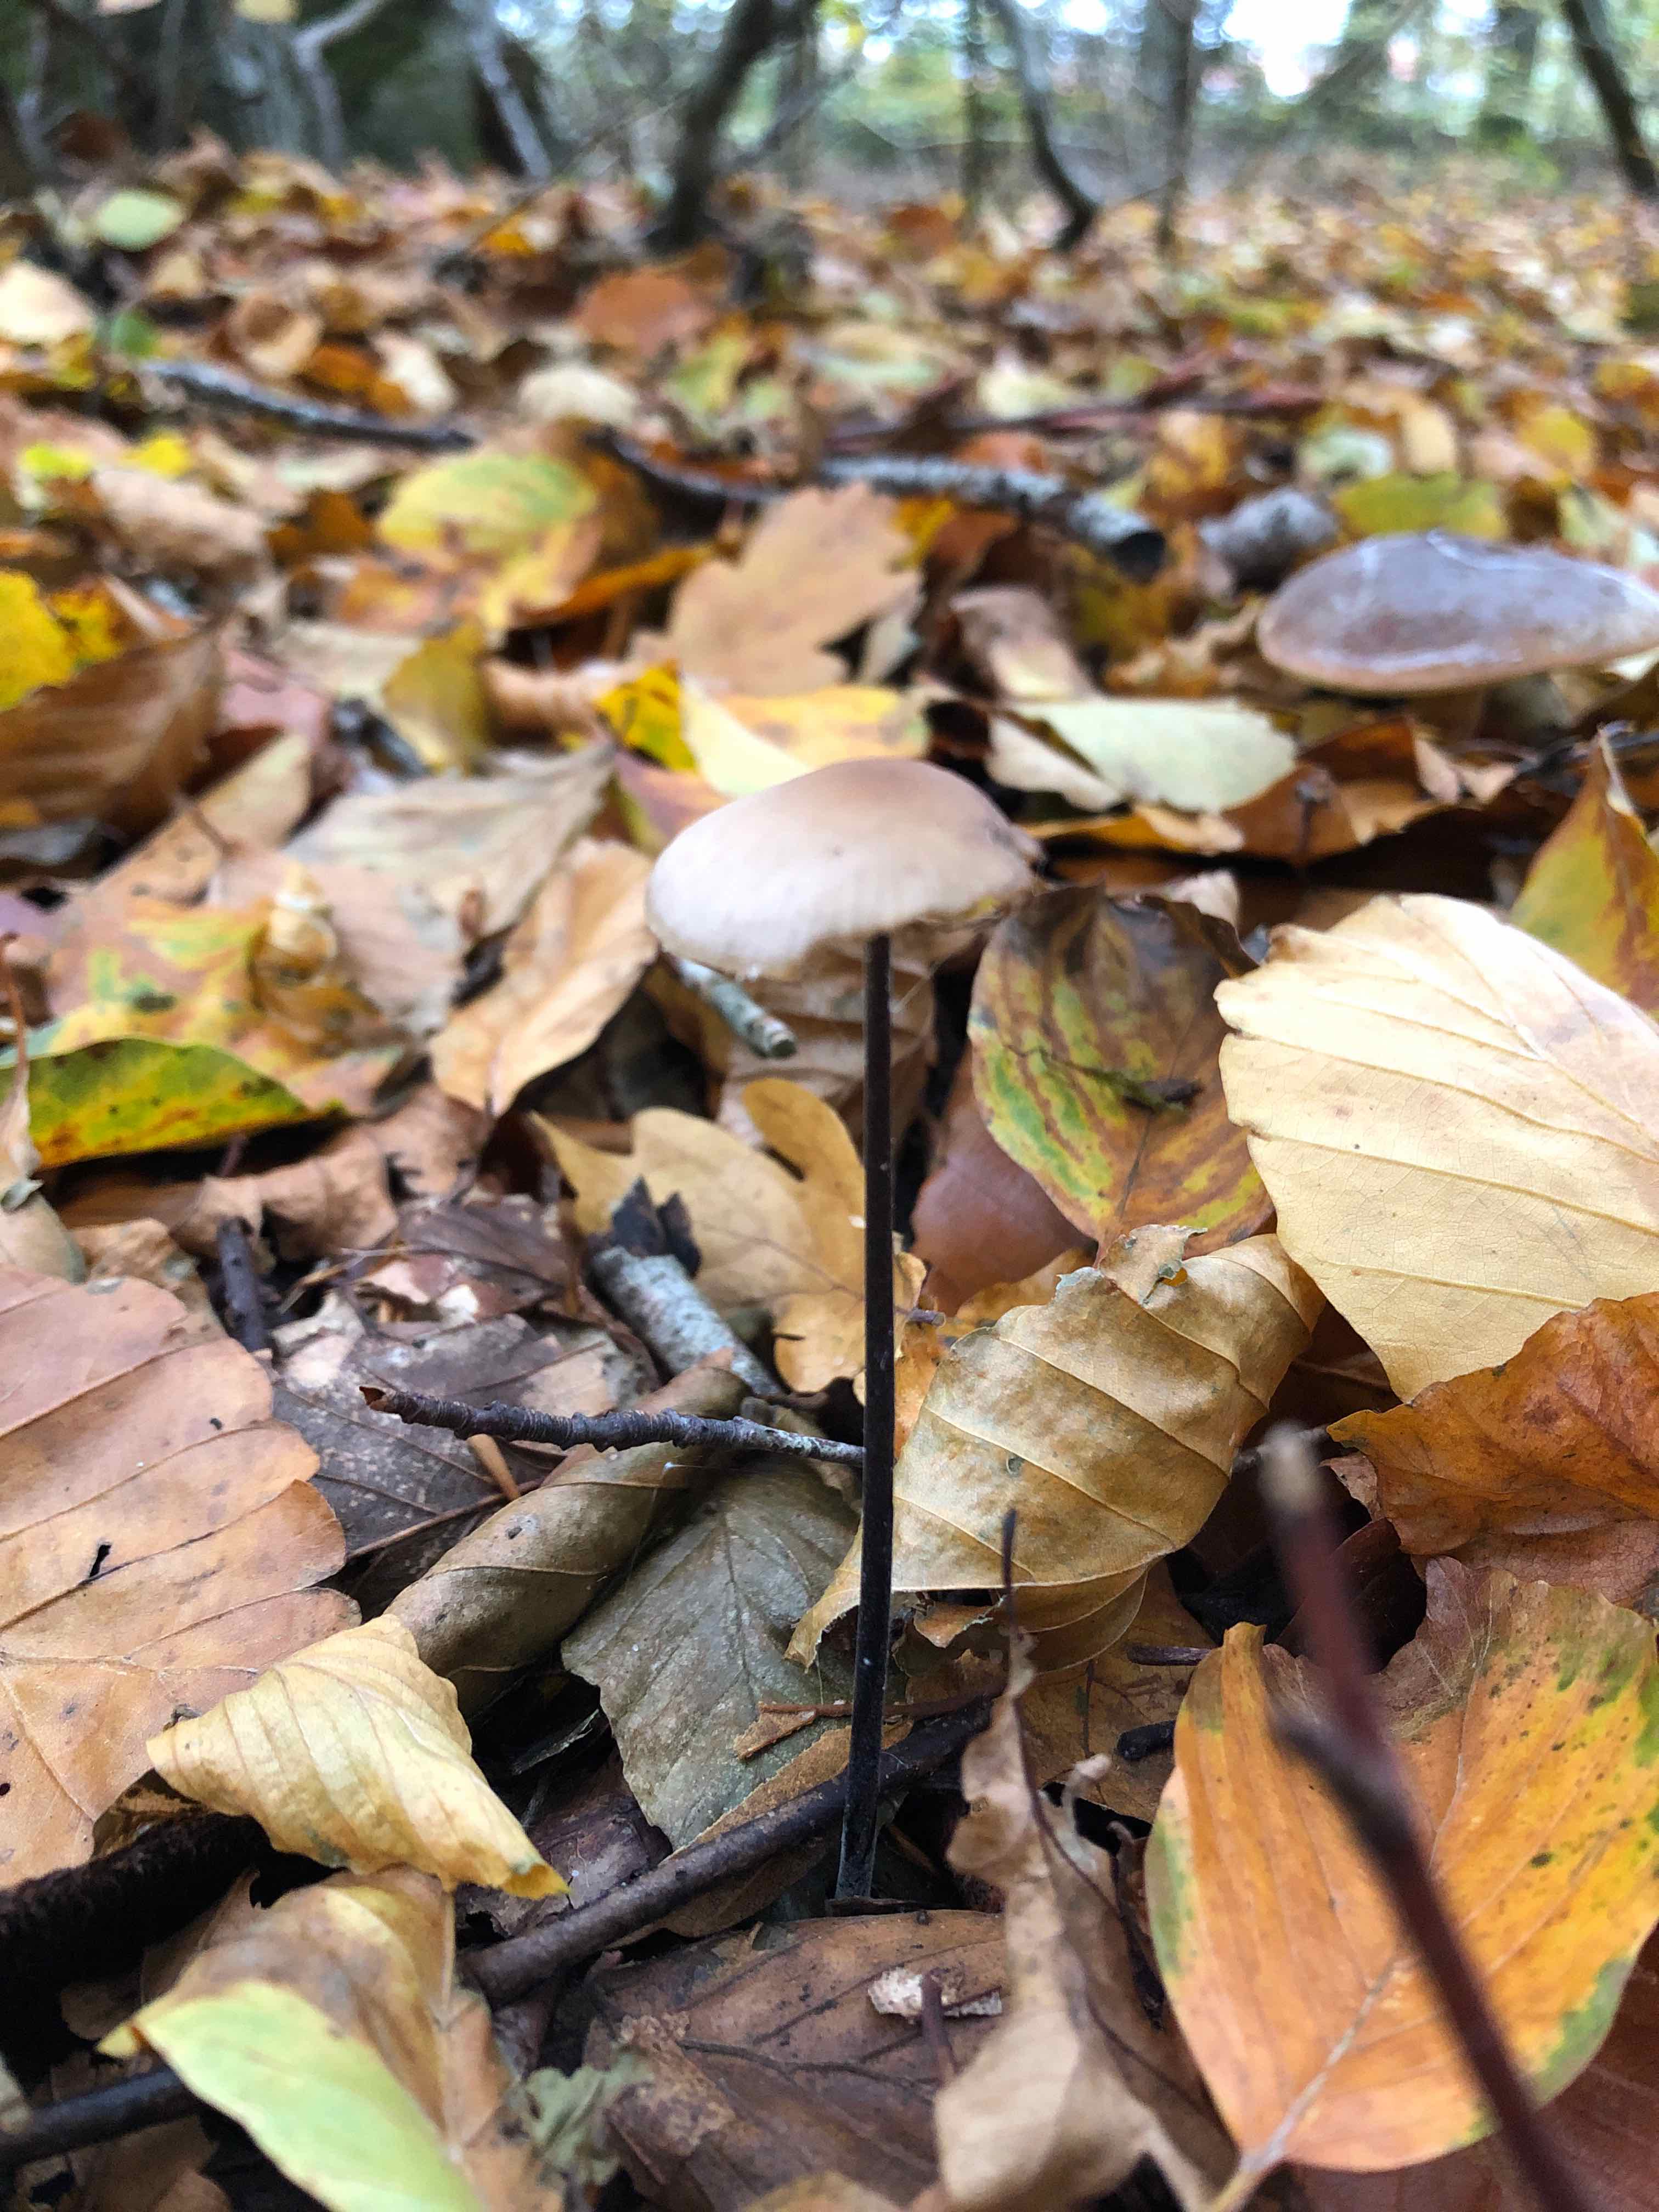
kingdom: Fungi
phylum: Basidiomycota
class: Agaricomycetes
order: Agaricales
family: Omphalotaceae
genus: Mycetinis
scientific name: Mycetinis alliaceus
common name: stor løghat
